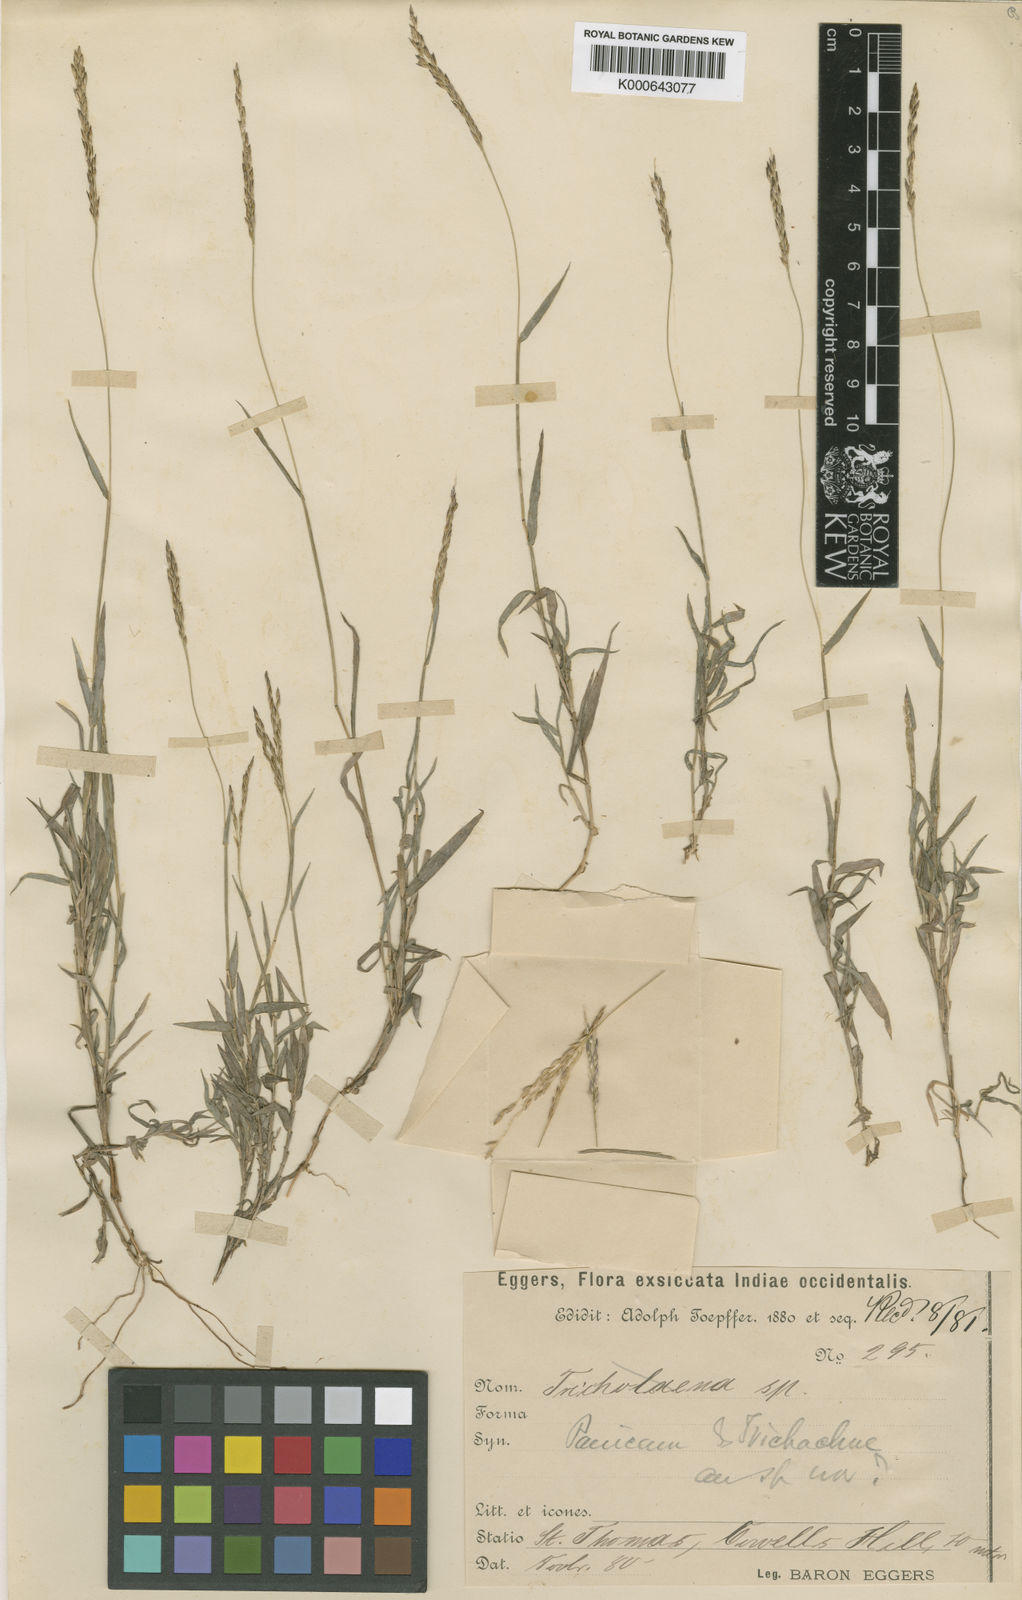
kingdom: Plantae
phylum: Tracheophyta
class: Liliopsida
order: Poales
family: Poaceae
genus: Digitaria
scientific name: Digitaria eggersii
